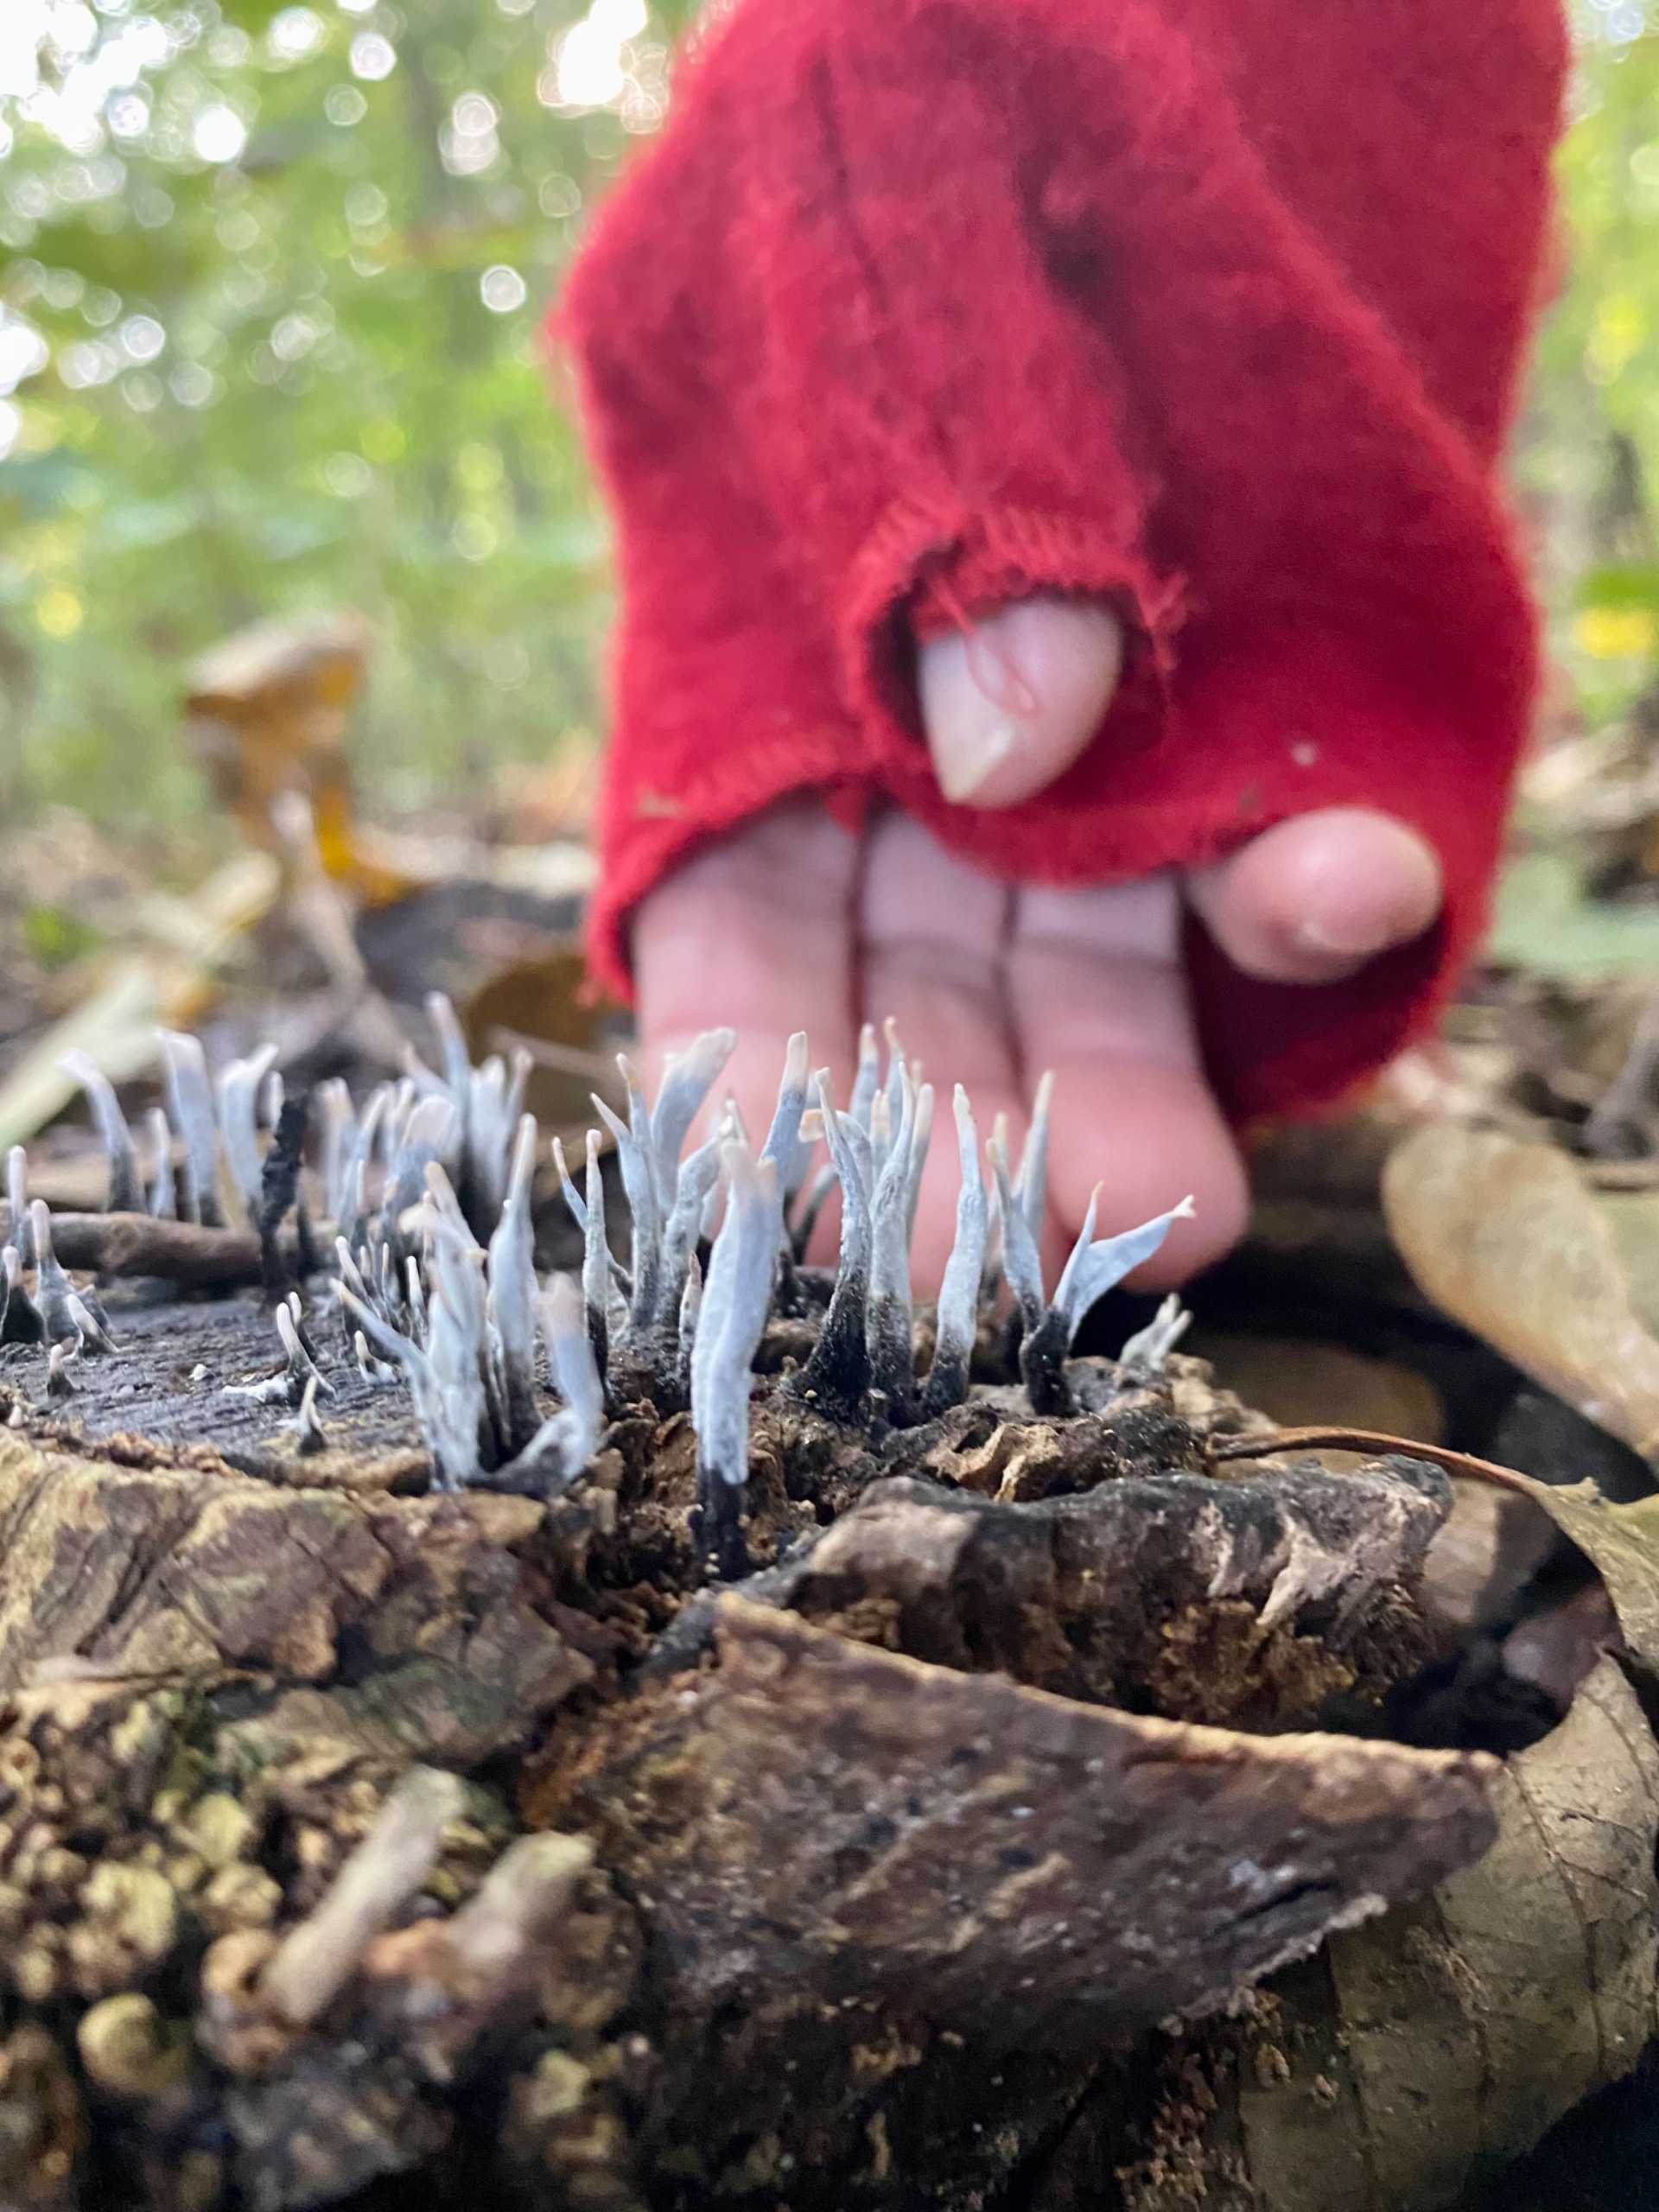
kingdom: Fungi
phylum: Ascomycota
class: Sordariomycetes
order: Xylariales
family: Xylariaceae
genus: Xylaria
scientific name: Xylaria hypoxylon
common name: Grenet stødsvamp
